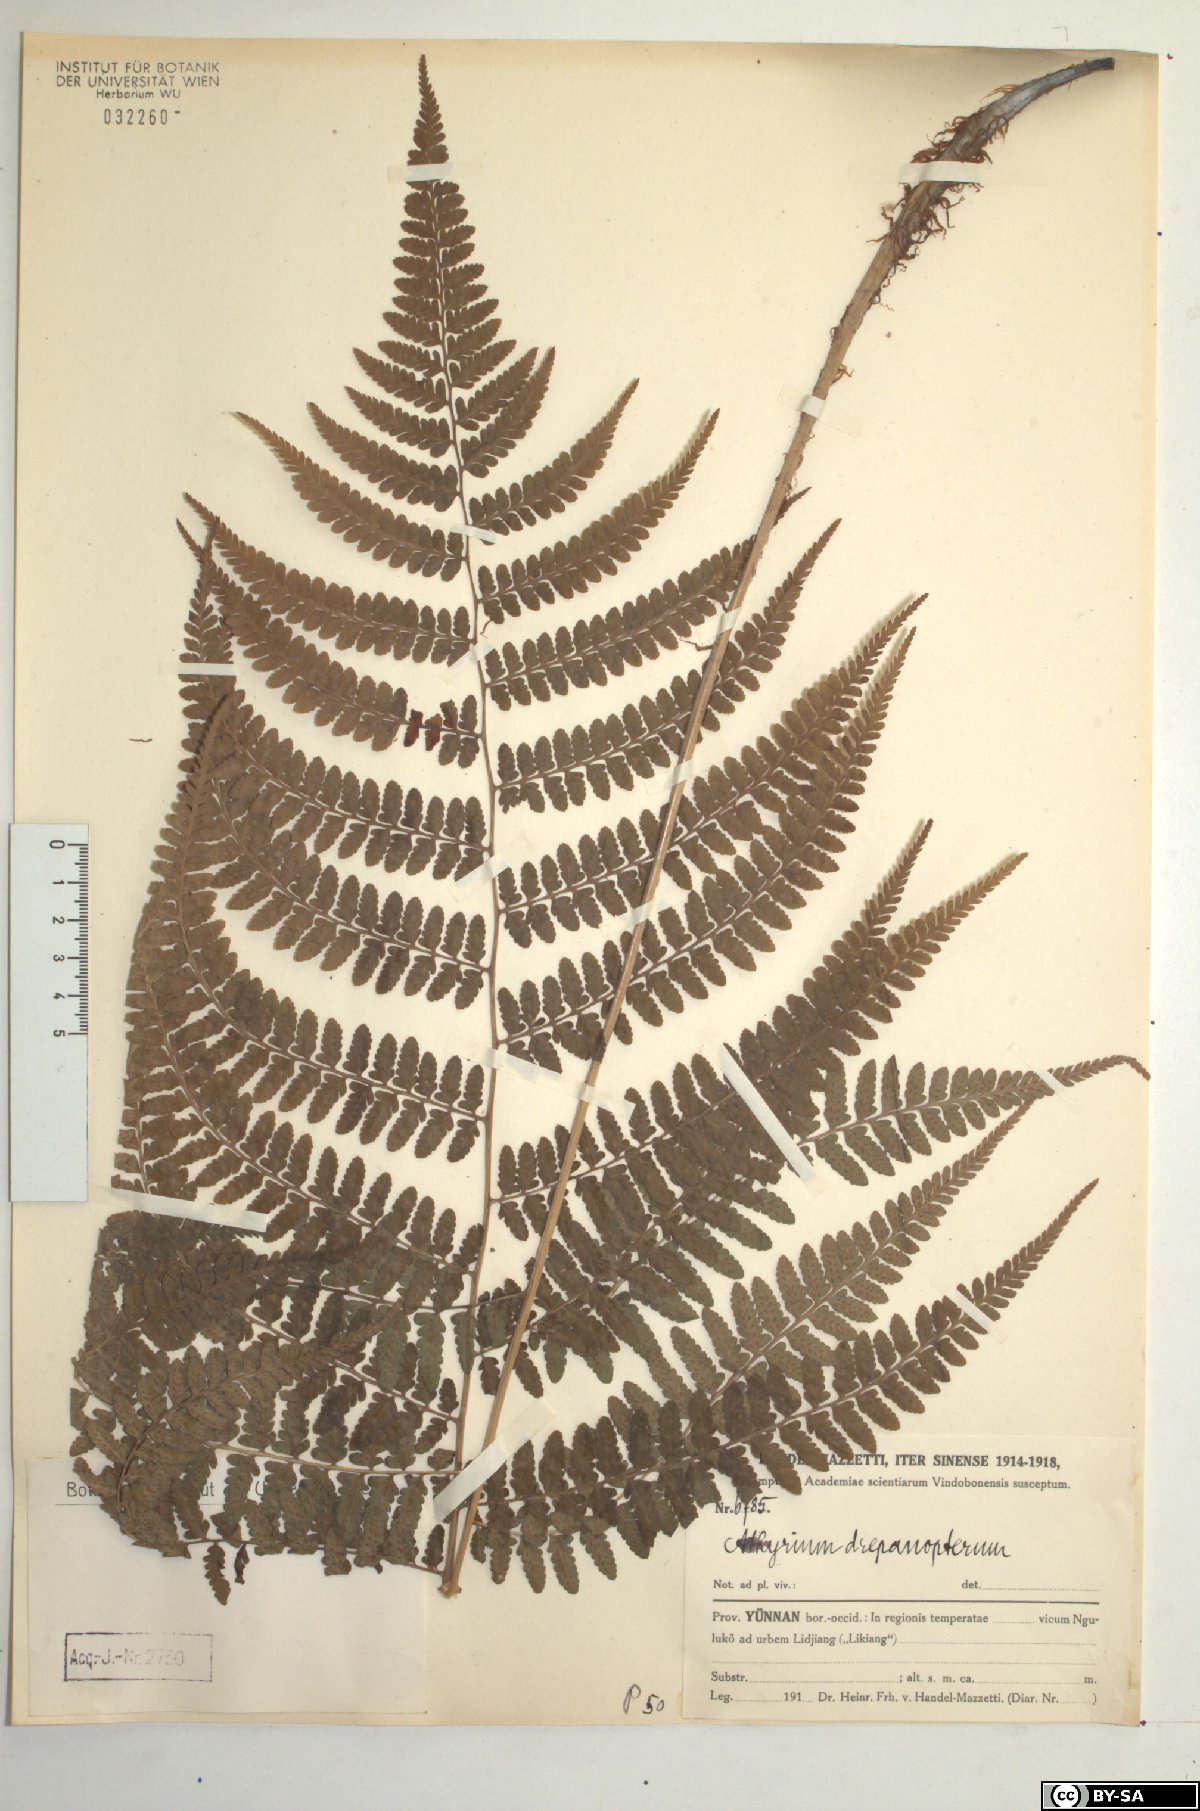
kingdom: Plantae
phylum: Tracheophyta
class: Polypodiopsida
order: Polypodiales
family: Athyriaceae
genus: Athyrium
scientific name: Athyrium drepanopteron
